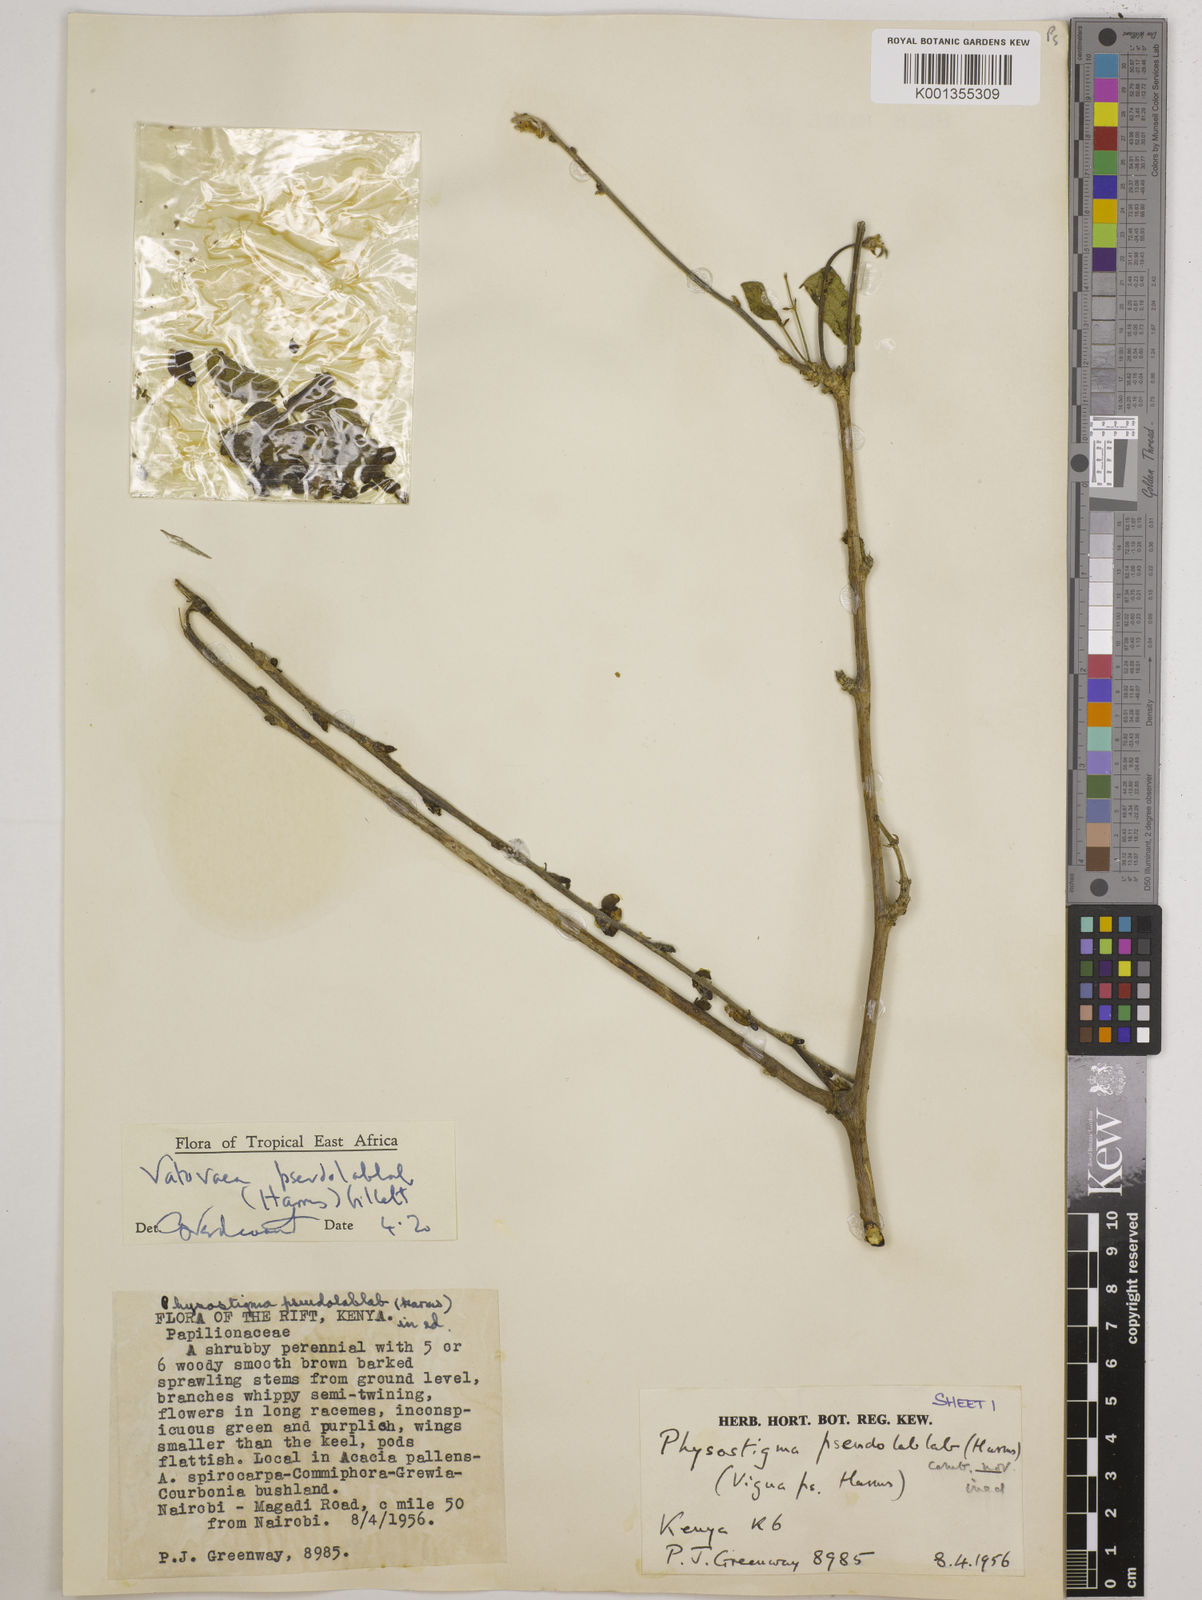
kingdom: Plantae
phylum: Tracheophyta
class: Magnoliopsida
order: Fabales
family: Fabaceae
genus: Vatovaea
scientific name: Vatovaea pseudolablab
